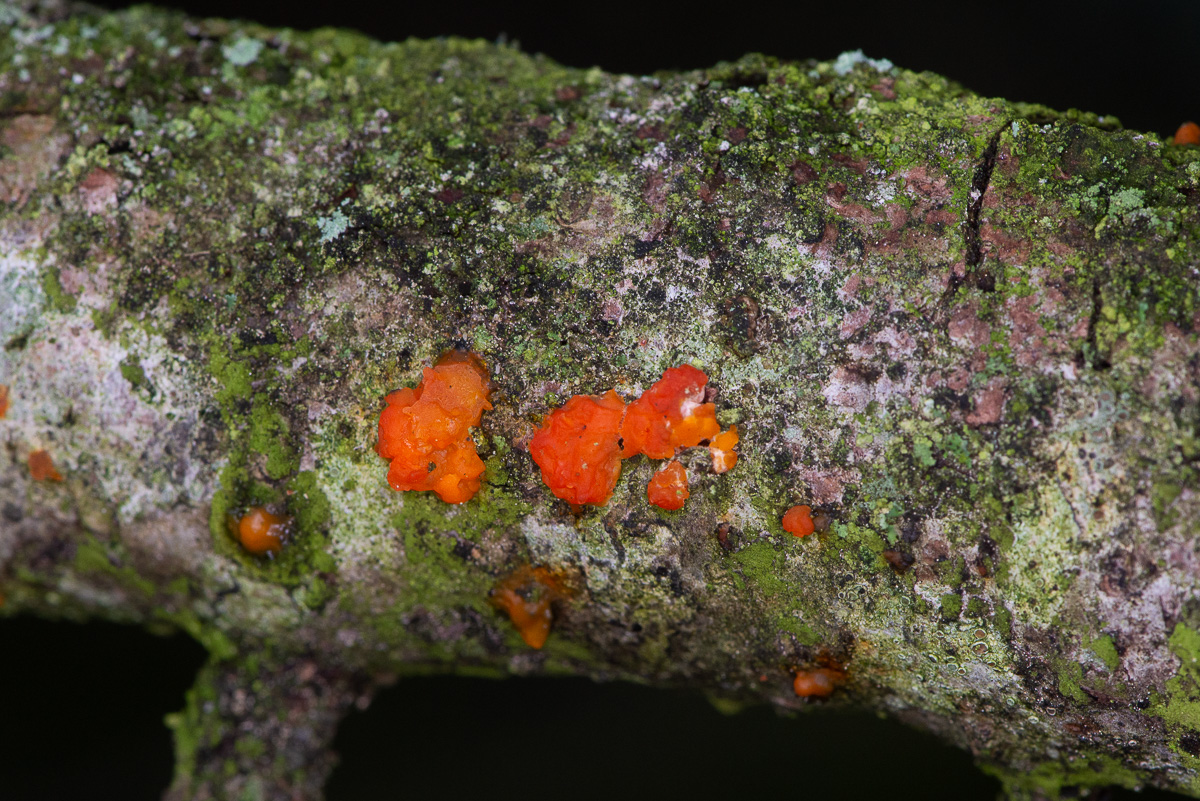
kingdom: Fungi
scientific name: Fungi
